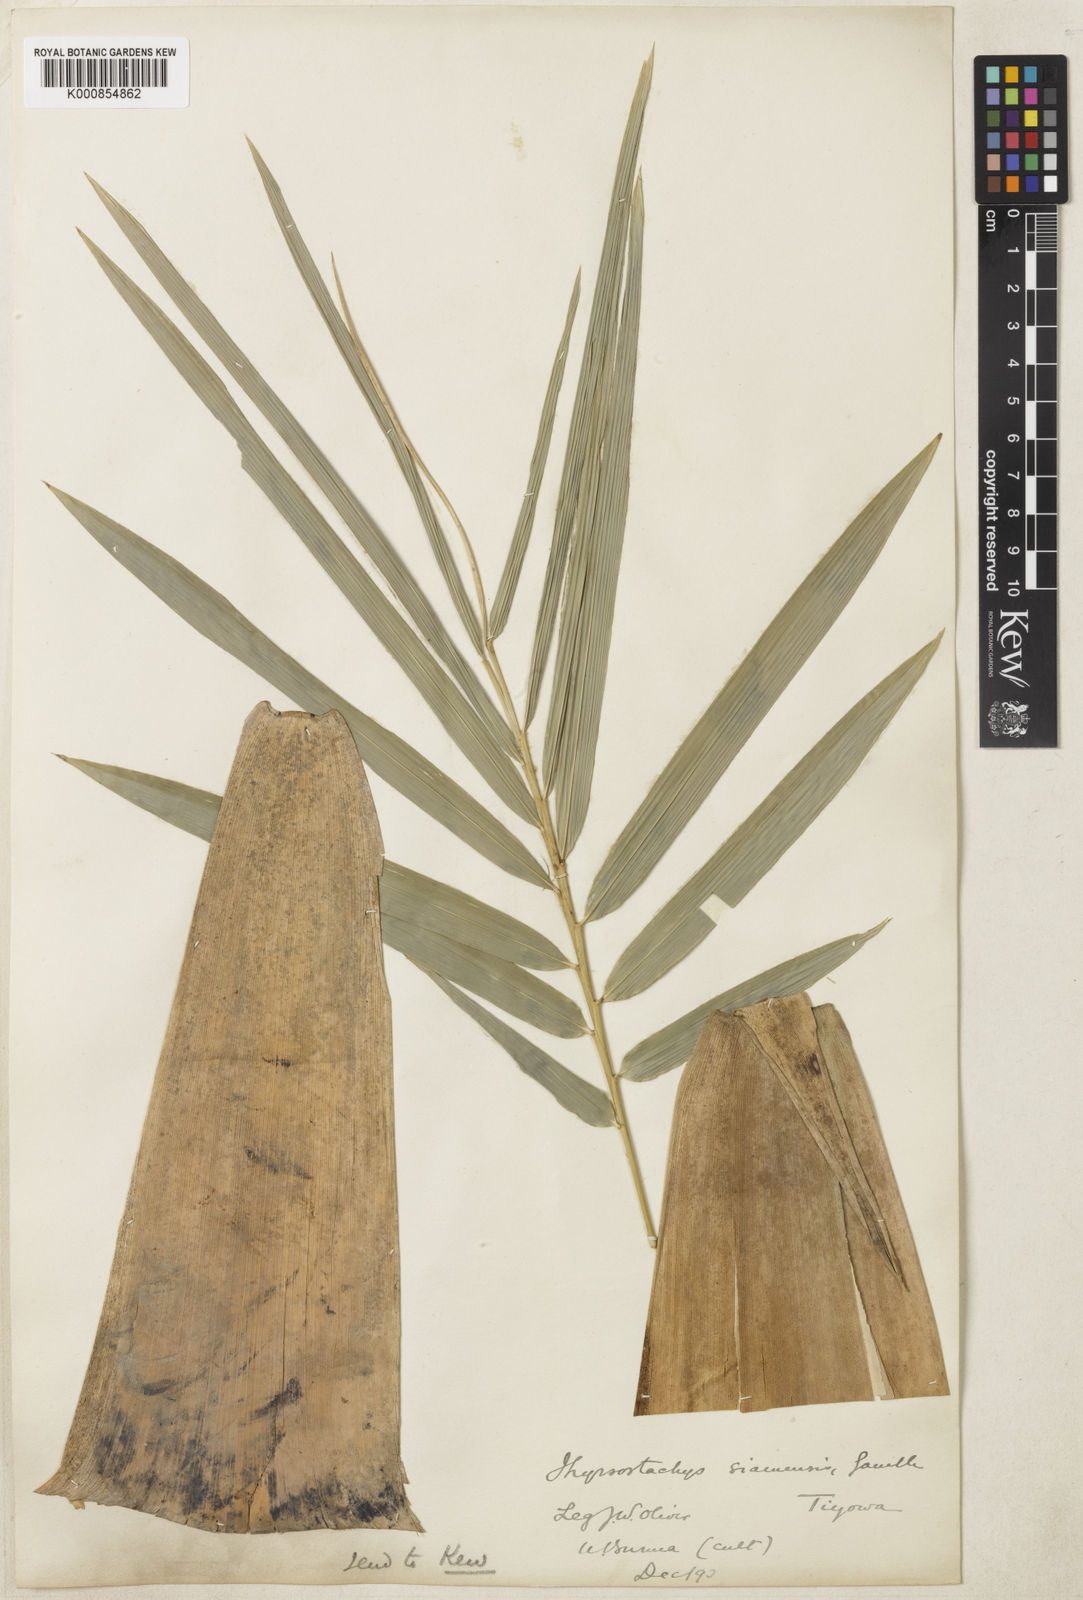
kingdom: Plantae
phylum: Tracheophyta
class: Liliopsida
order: Poales
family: Poaceae
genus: Thyrsostachys
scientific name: Thyrsostachys siamensis
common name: Thailand bamboo
